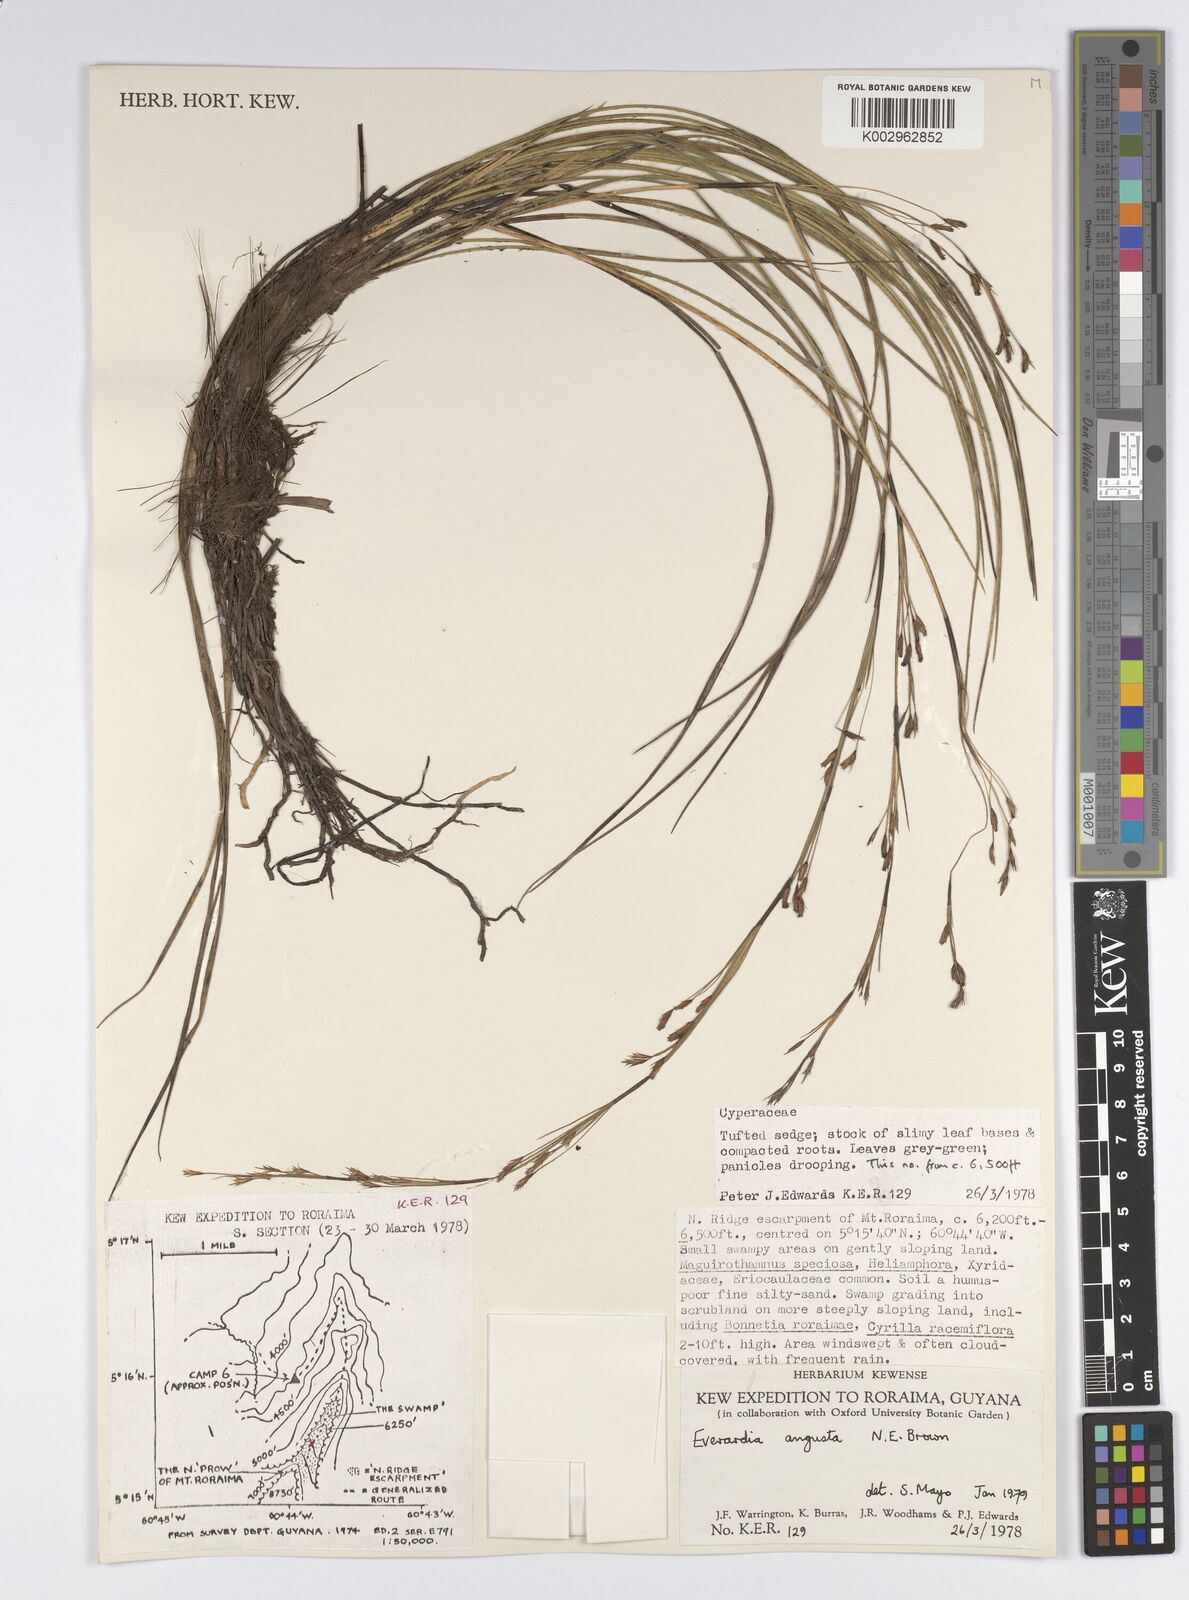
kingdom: Plantae
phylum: Tracheophyta
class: Liliopsida
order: Poales
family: Cyperaceae
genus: Cephalocarpus
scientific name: Cephalocarpus angustus
